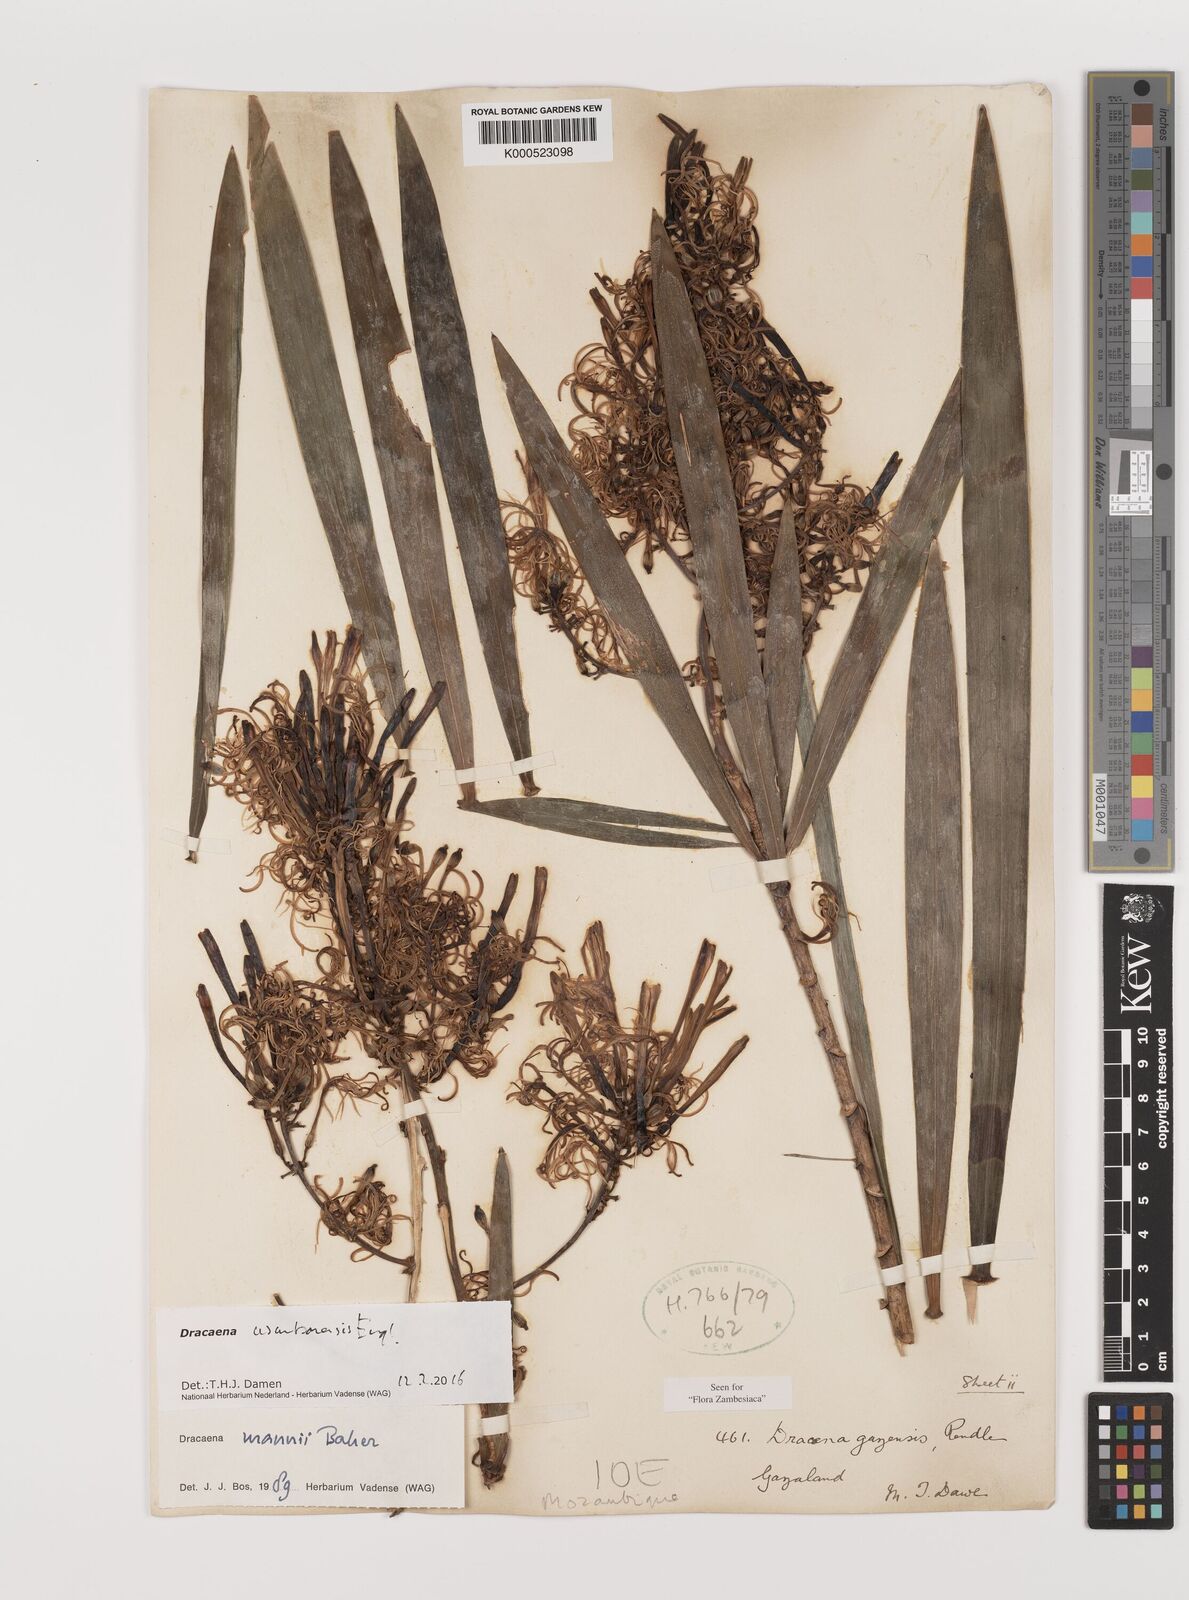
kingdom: Plantae
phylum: Tracheophyta
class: Liliopsida
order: Asparagales
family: Asparagaceae
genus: Dracaena
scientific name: Dracaena usambarensis
